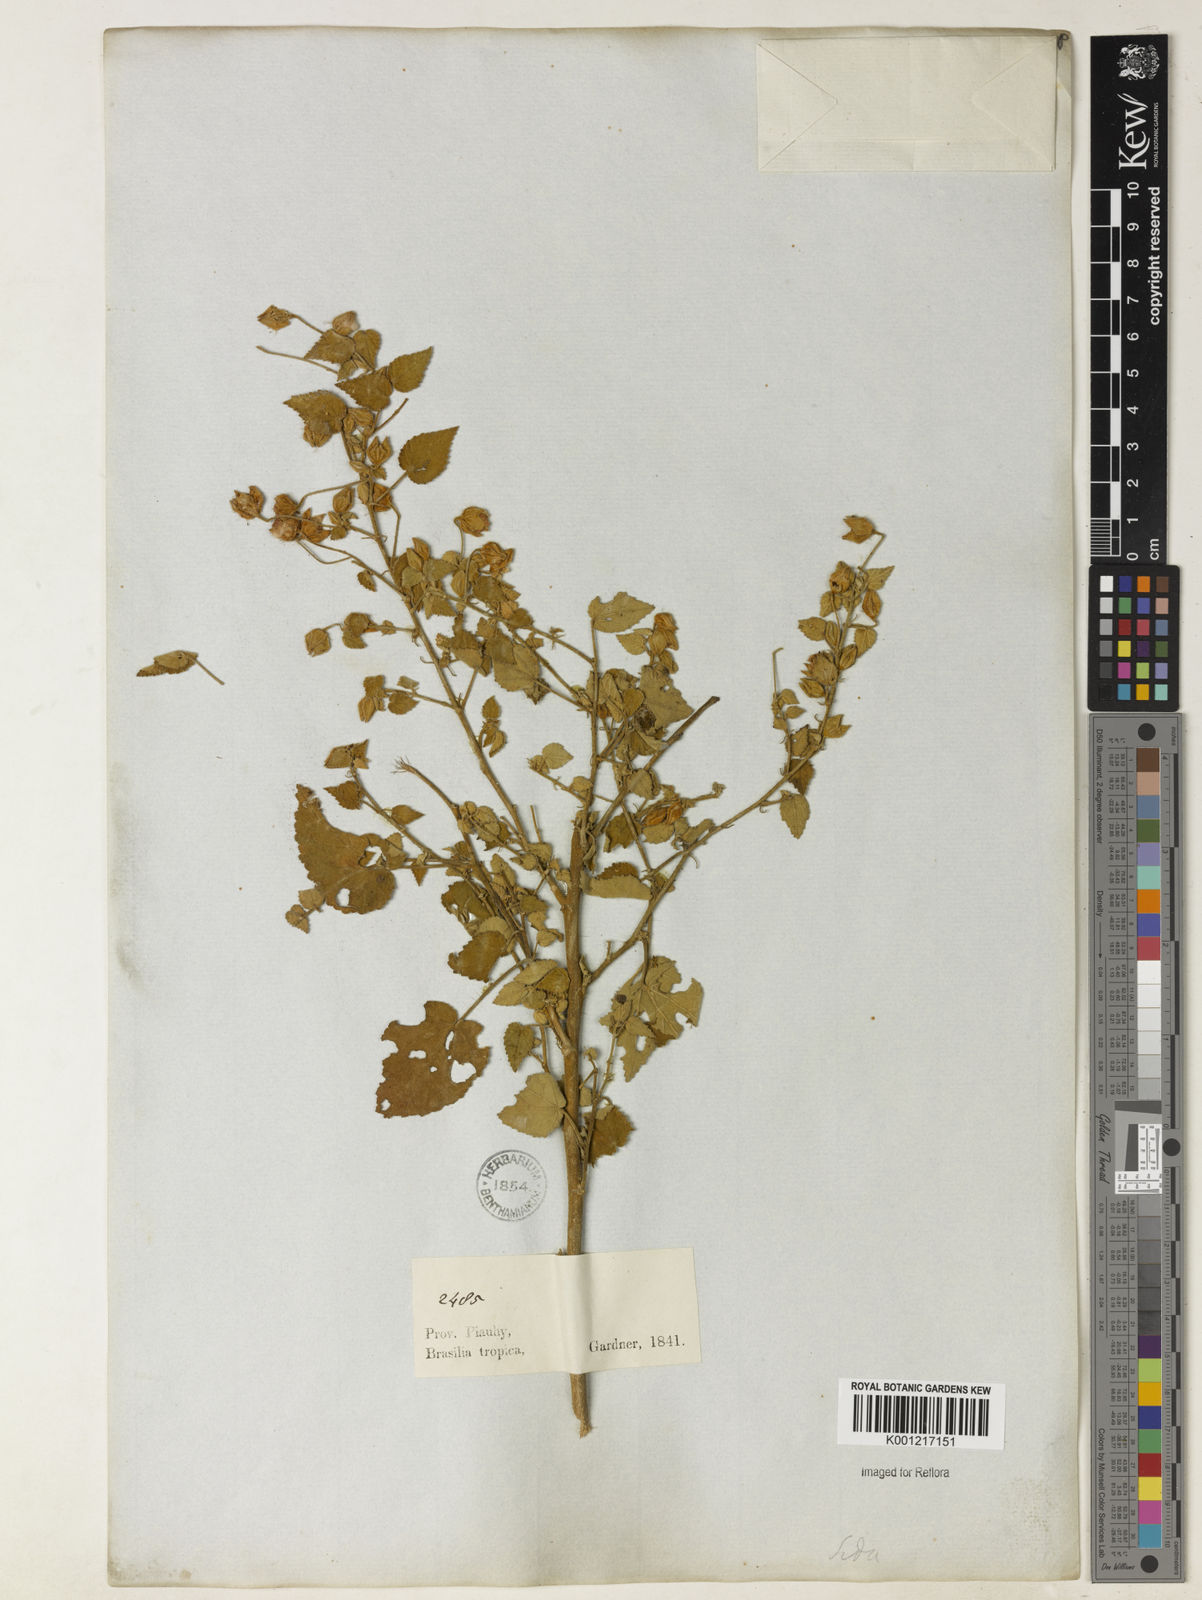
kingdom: Plantae
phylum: Tracheophyta
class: Magnoliopsida
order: Malvales
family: Malvaceae
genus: Sida
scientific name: Sida
